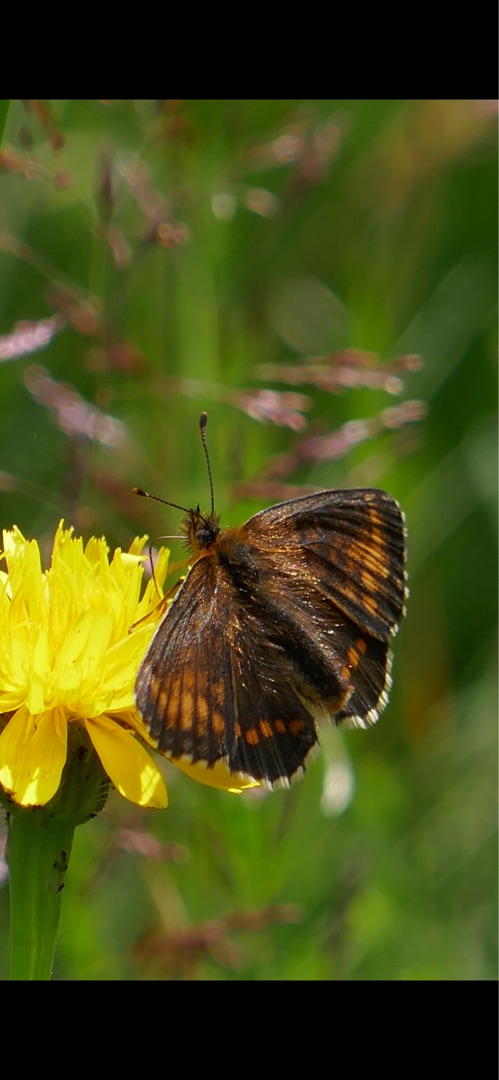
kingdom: Animalia
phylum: Arthropoda
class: Insecta
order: Lepidoptera
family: Nymphalidae
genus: Mellicta
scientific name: Mellicta athalia
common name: Brun pletvinge
